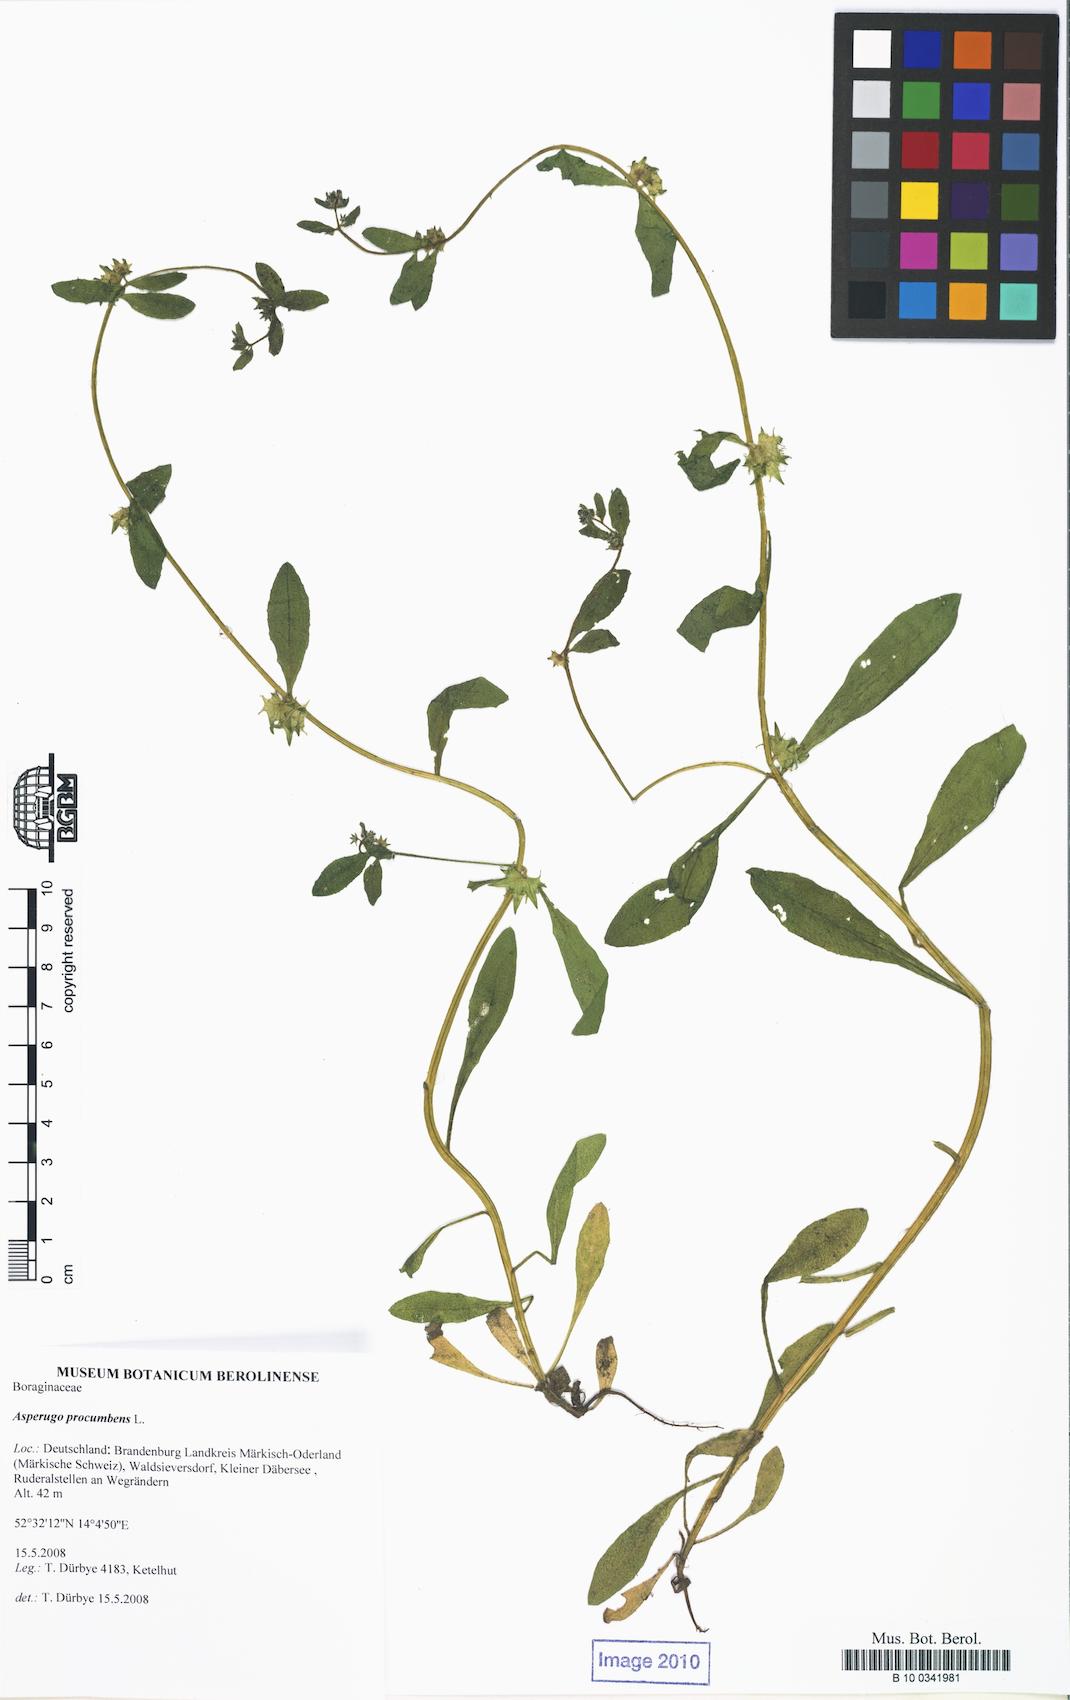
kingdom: Plantae
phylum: Tracheophyta
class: Magnoliopsida
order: Boraginales
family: Boraginaceae
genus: Asperugo
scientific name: Asperugo procumbens
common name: Madwort
